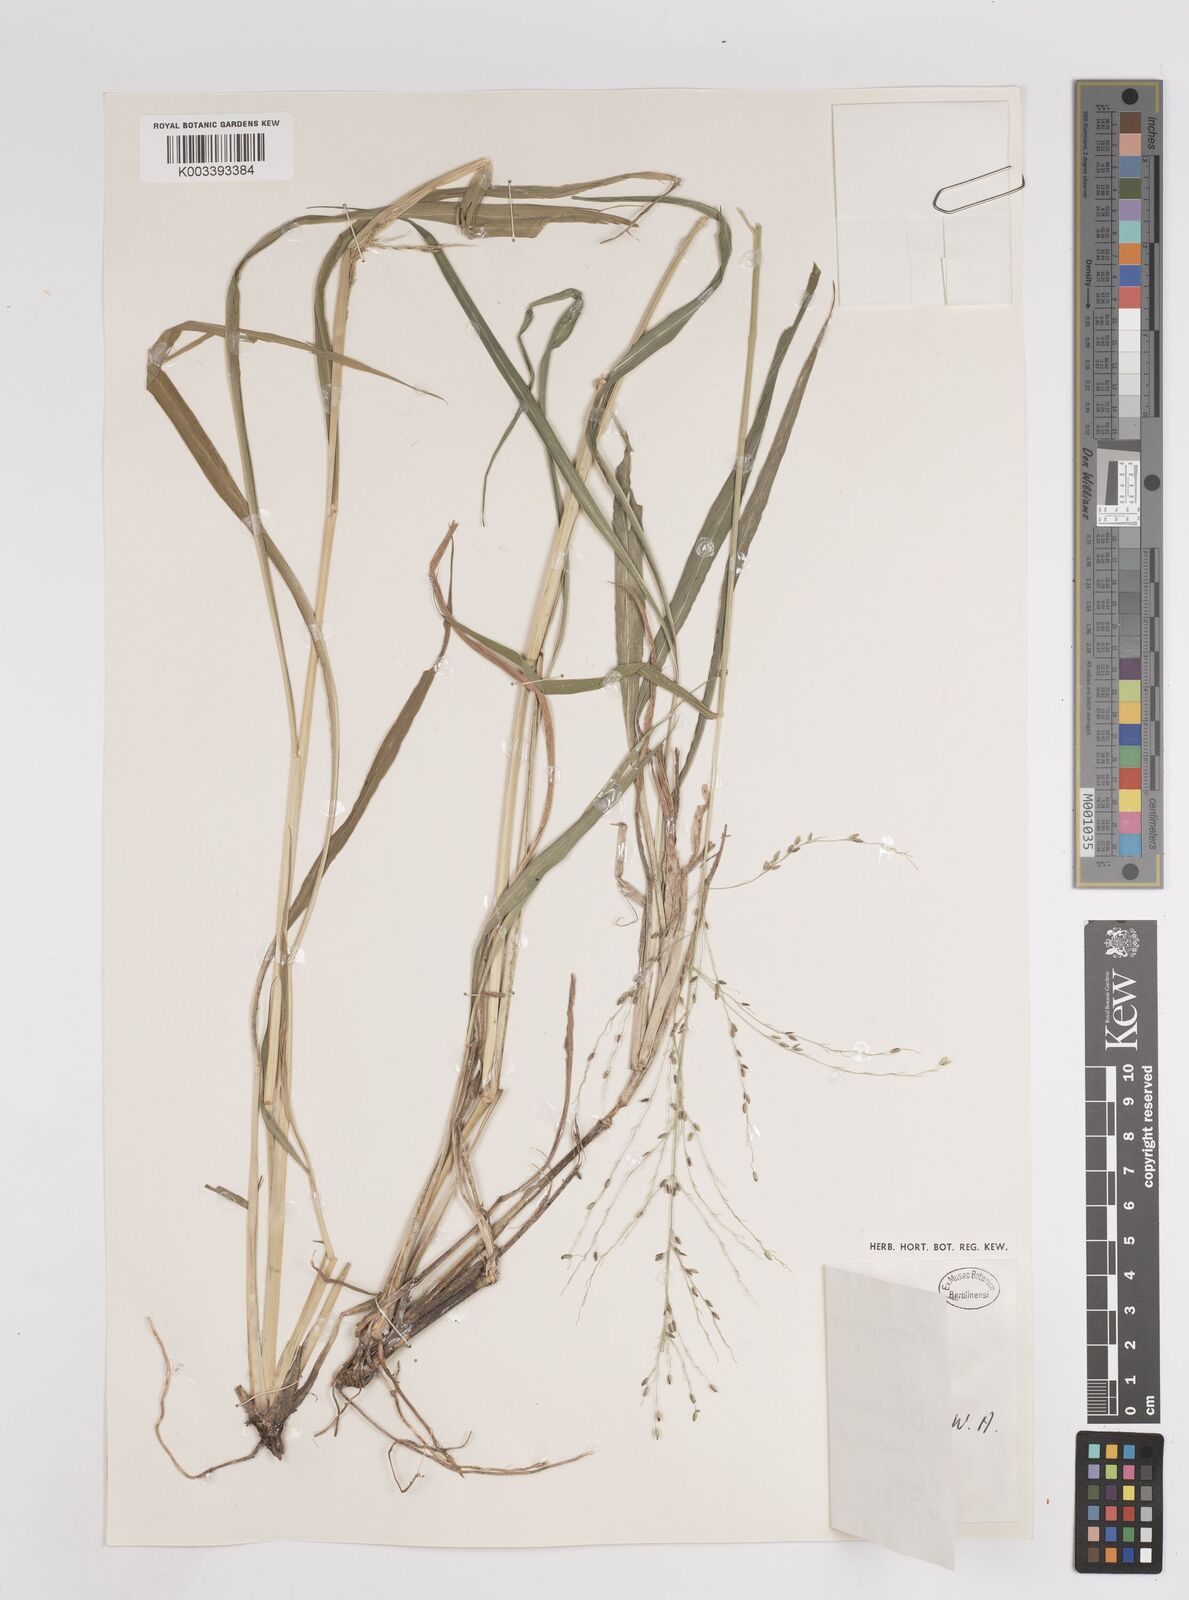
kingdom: Plantae
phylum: Tracheophyta
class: Liliopsida
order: Poales
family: Poaceae
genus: Megathyrsus
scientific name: Megathyrsus maximus
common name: Guineagrass
